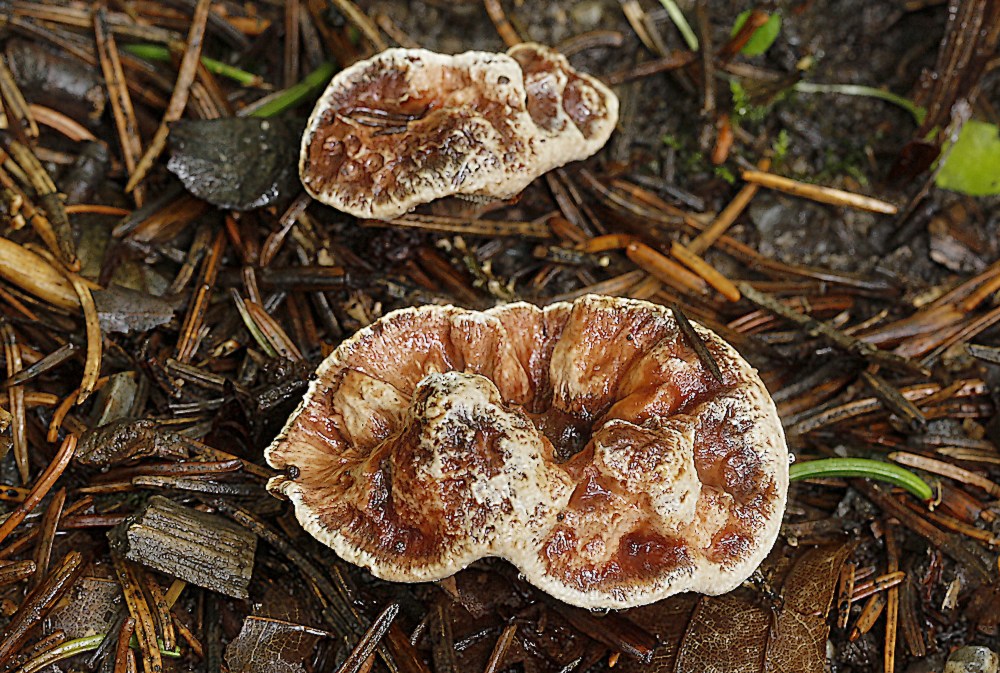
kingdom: Fungi
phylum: Basidiomycota
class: Agaricomycetes
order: Thelephorales
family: Bankeraceae
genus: Hydnellum
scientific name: Hydnellum concrescens
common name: Zoned tooth
